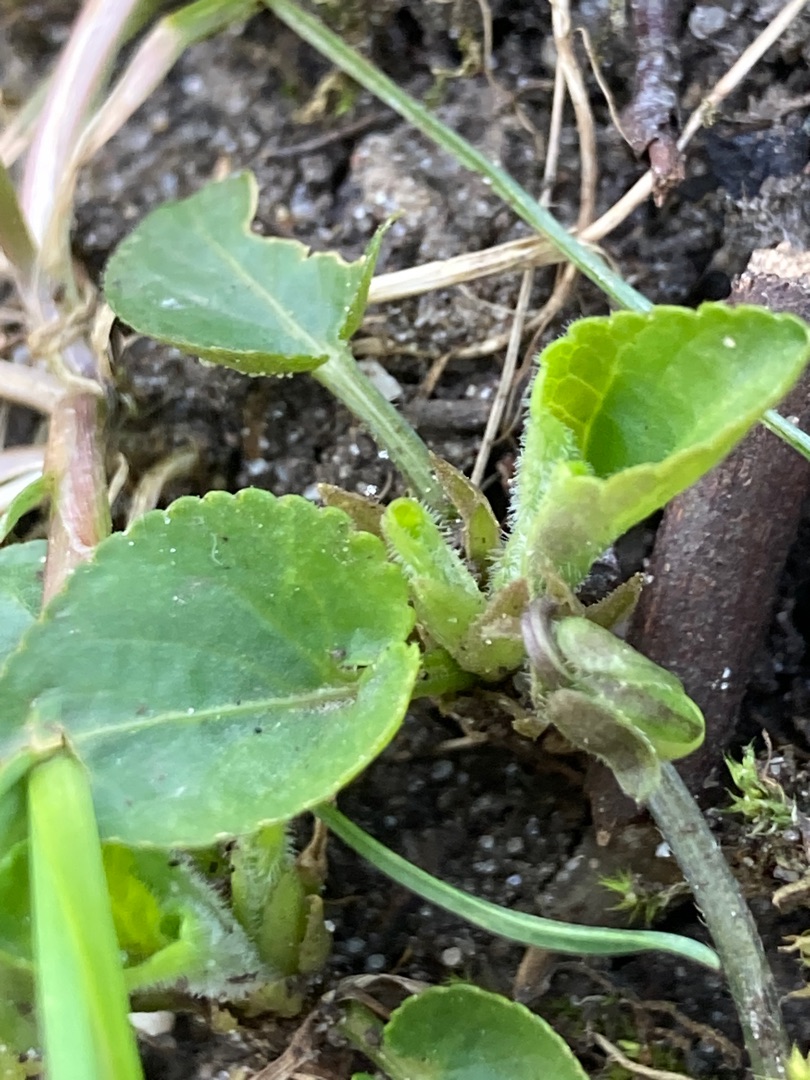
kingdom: Plantae
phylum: Tracheophyta
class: Magnoliopsida
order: Malpighiales
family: Violaceae
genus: Viola
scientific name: Viola hirta
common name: Håret viol
